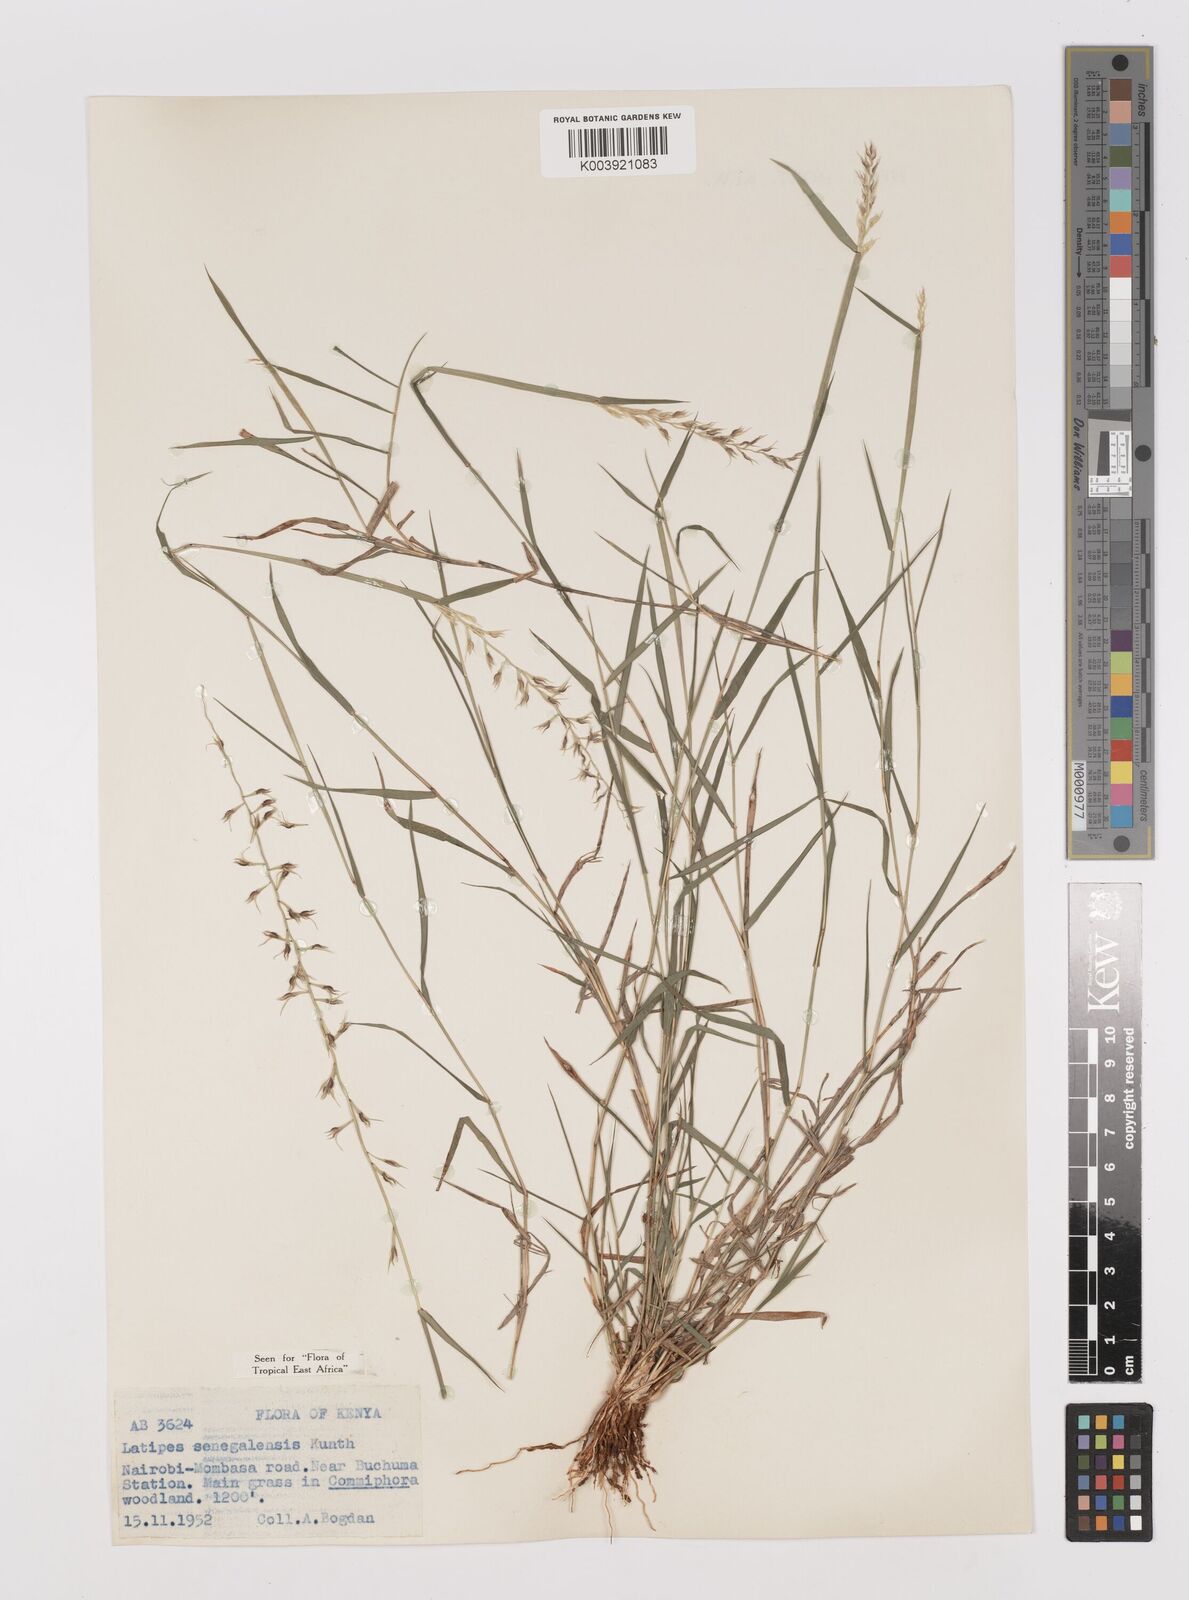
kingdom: Plantae
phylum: Tracheophyta
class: Liliopsida
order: Poales
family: Poaceae
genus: Leptothrium
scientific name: Leptothrium senegalense
